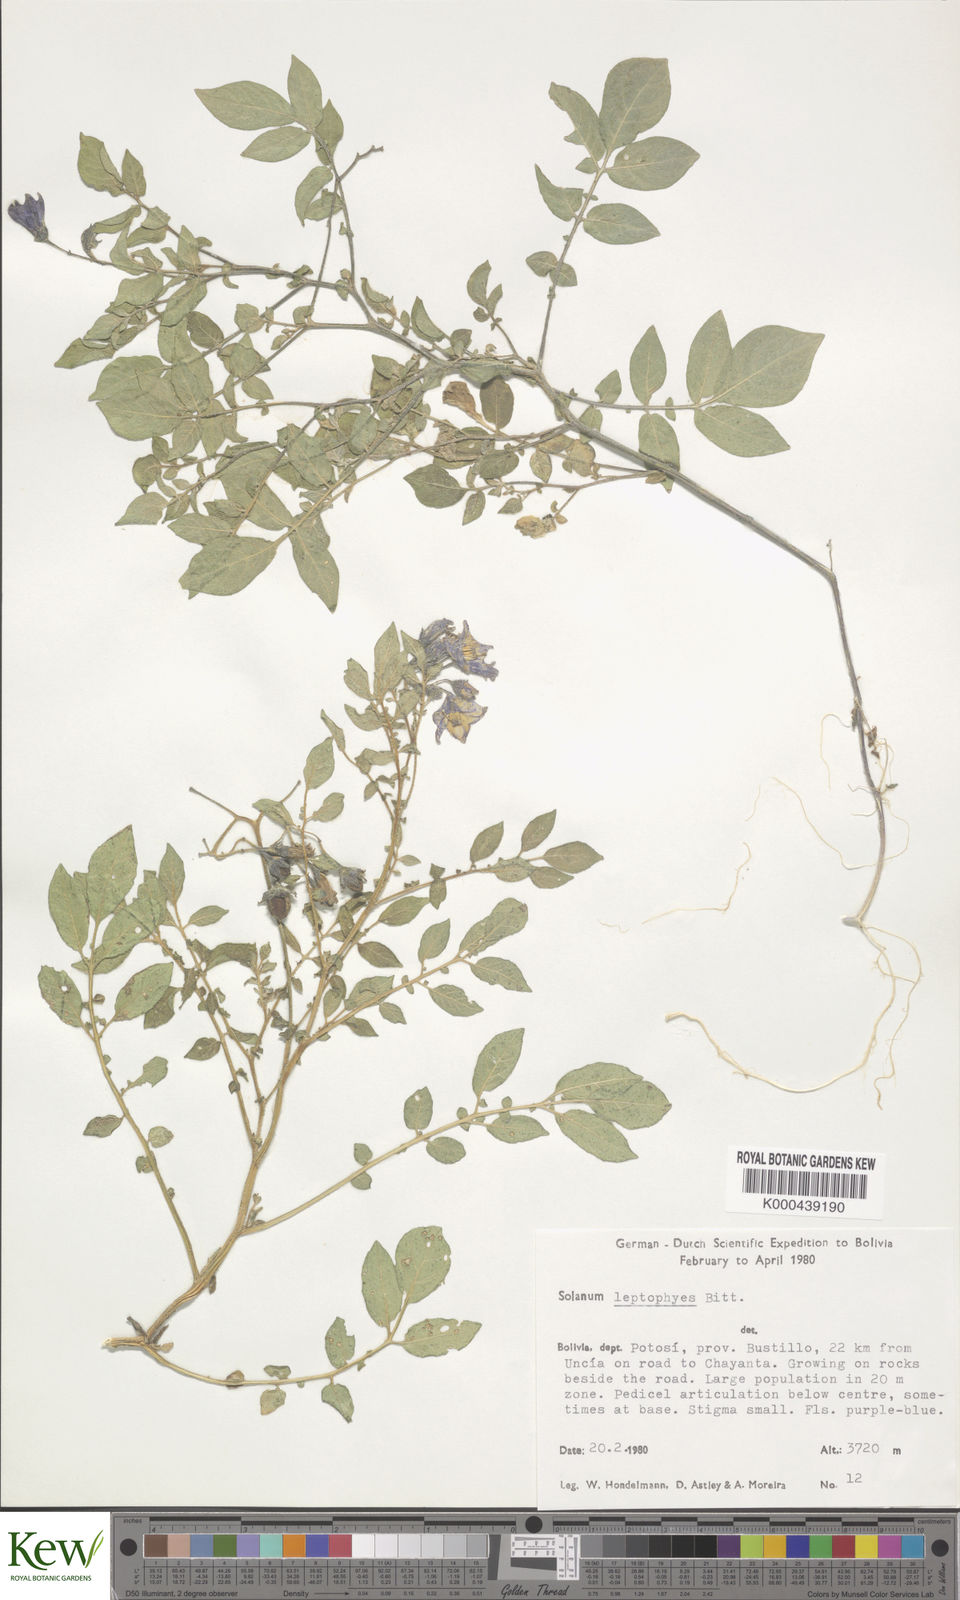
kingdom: Plantae
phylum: Tracheophyta
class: Magnoliopsida
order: Solanales
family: Solanaceae
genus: Solanum
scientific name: Solanum brevicaule
